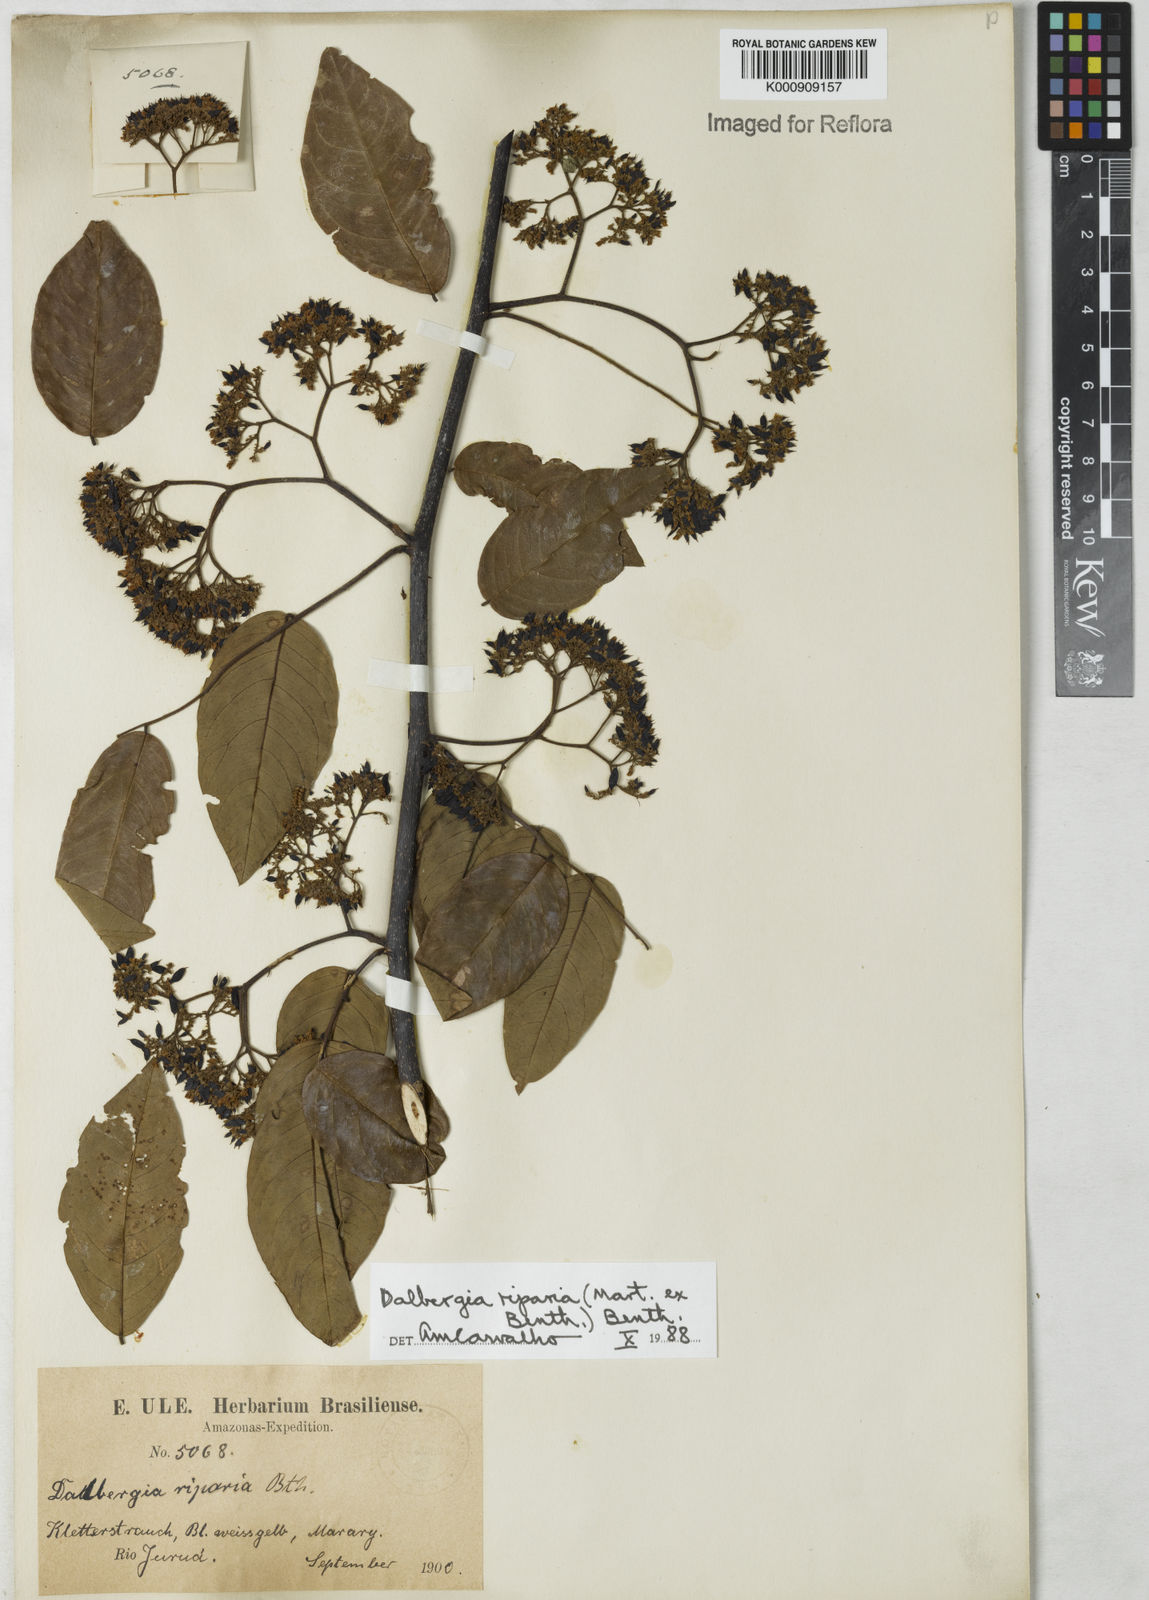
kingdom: Plantae
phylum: Tracheophyta
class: Magnoliopsida
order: Fabales
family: Fabaceae
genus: Dalbergia
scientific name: Dalbergia riparia
